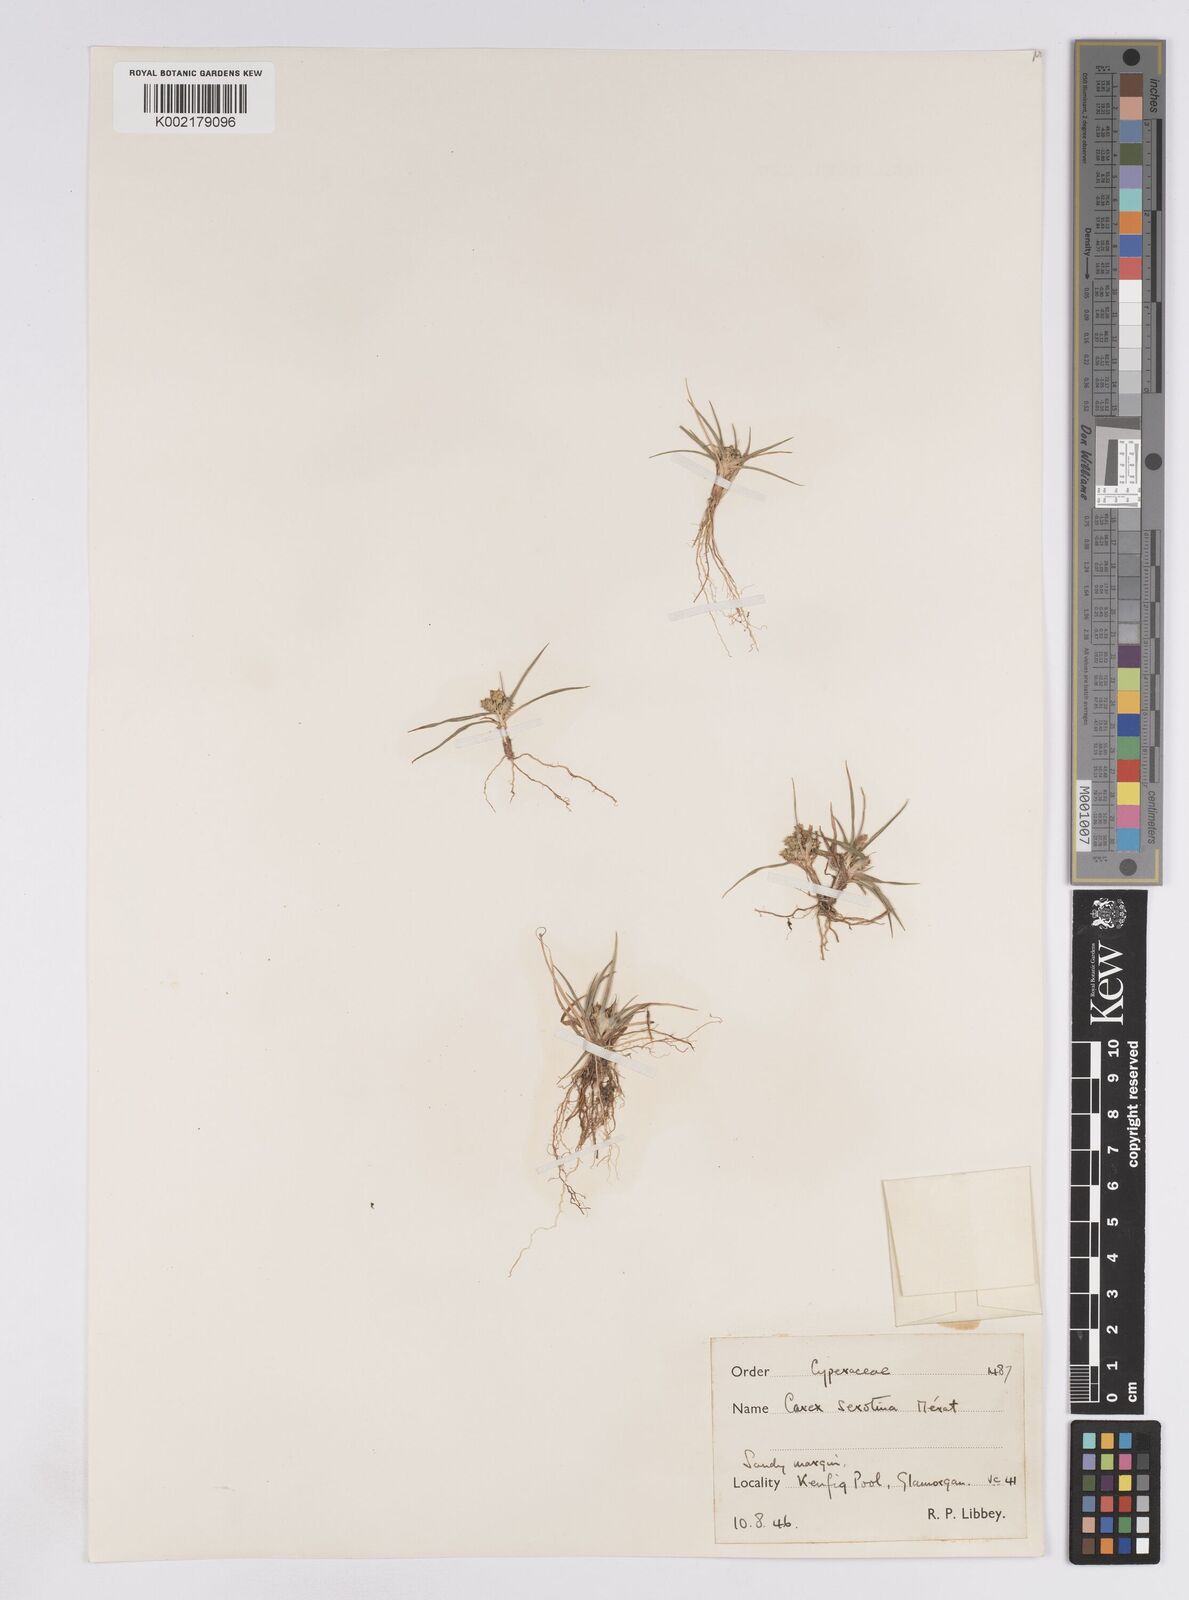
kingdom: Plantae
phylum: Tracheophyta
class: Liliopsida
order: Poales
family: Cyperaceae
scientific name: Cyperaceae
